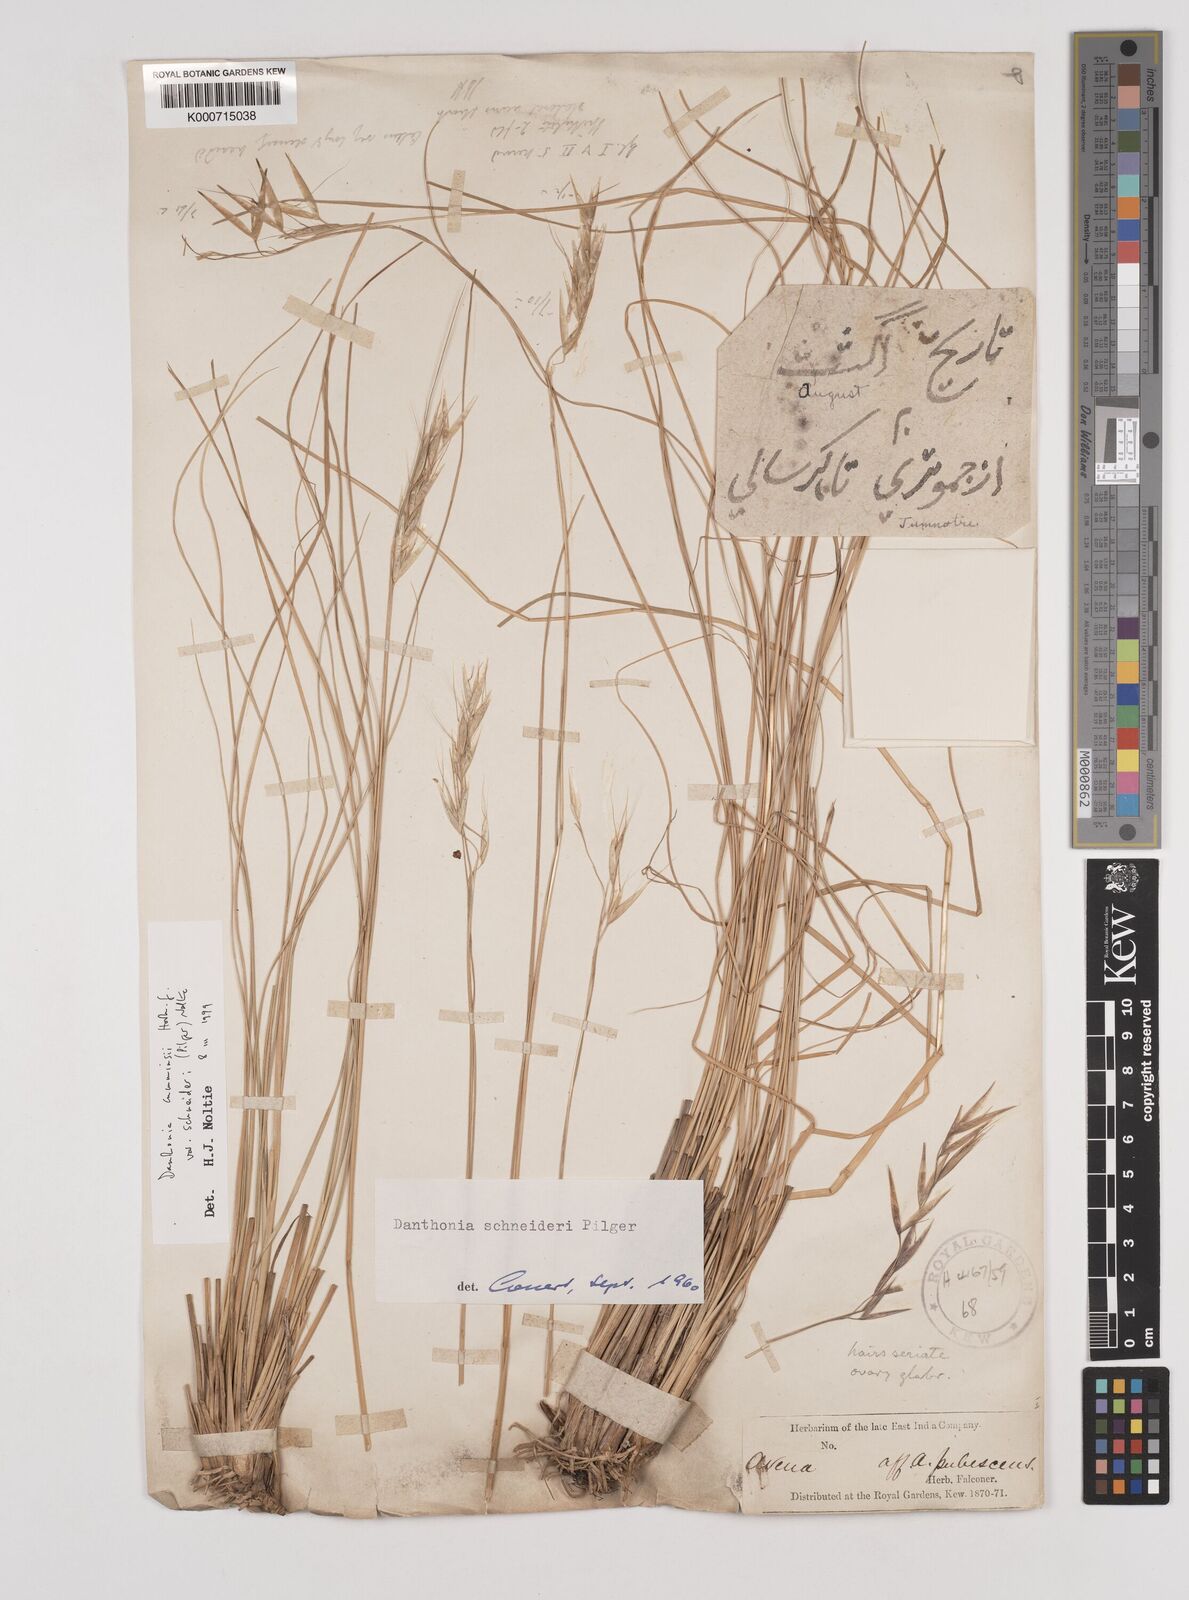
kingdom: Plantae
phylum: Tracheophyta
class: Liliopsida
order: Poales
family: Poaceae
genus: Rytidosperma
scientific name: Rytidosperma
